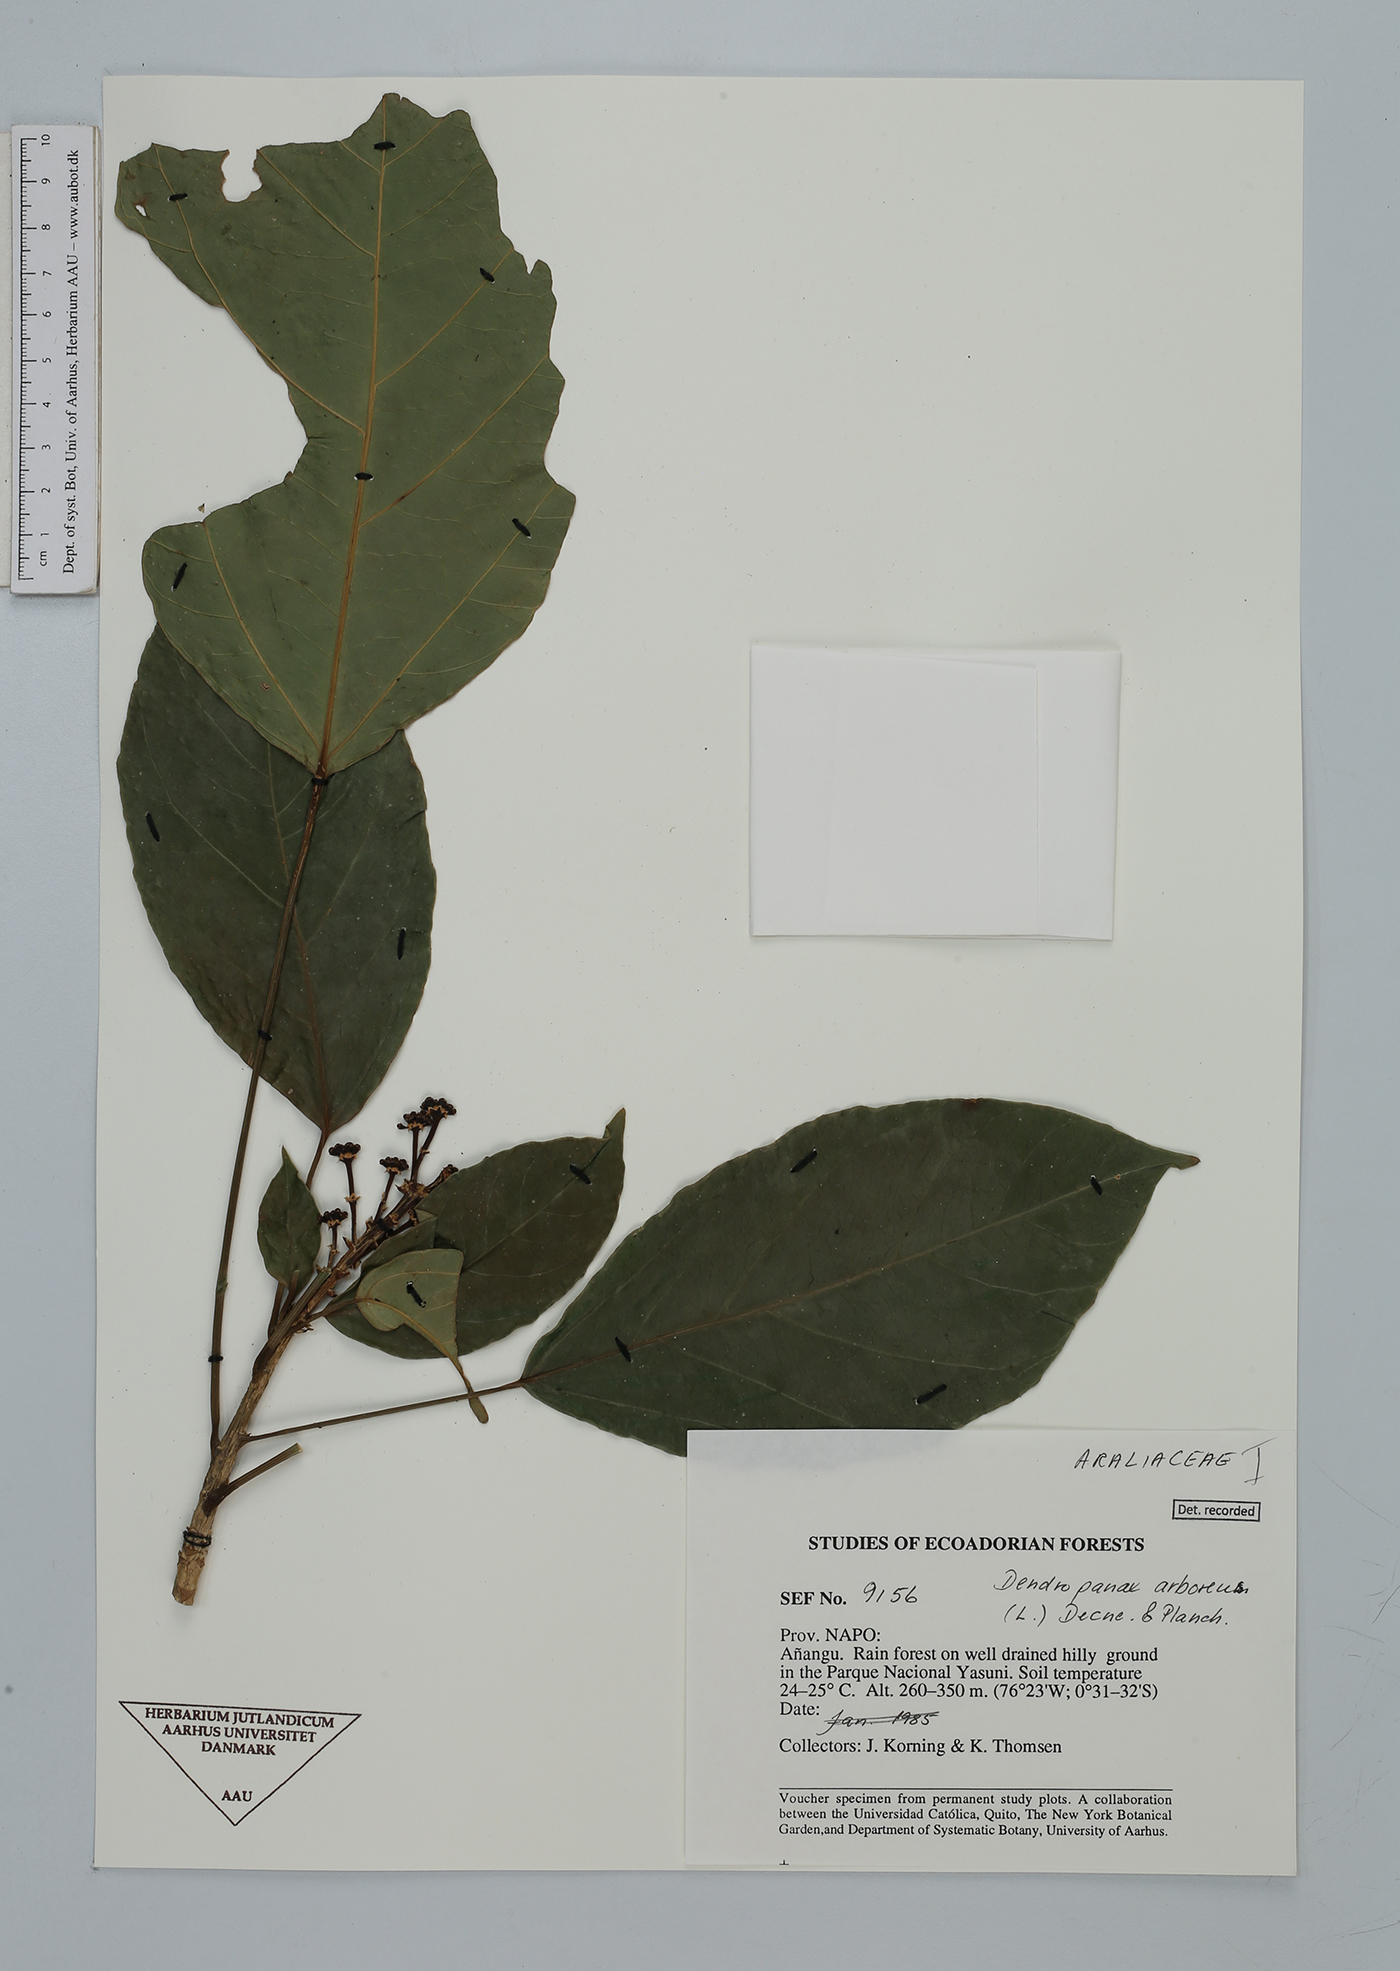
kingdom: Plantae
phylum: Tracheophyta
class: Magnoliopsida
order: Apiales
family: Araliaceae
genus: Dendropanax
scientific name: Dendropanax arboreus
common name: Potato-wood
